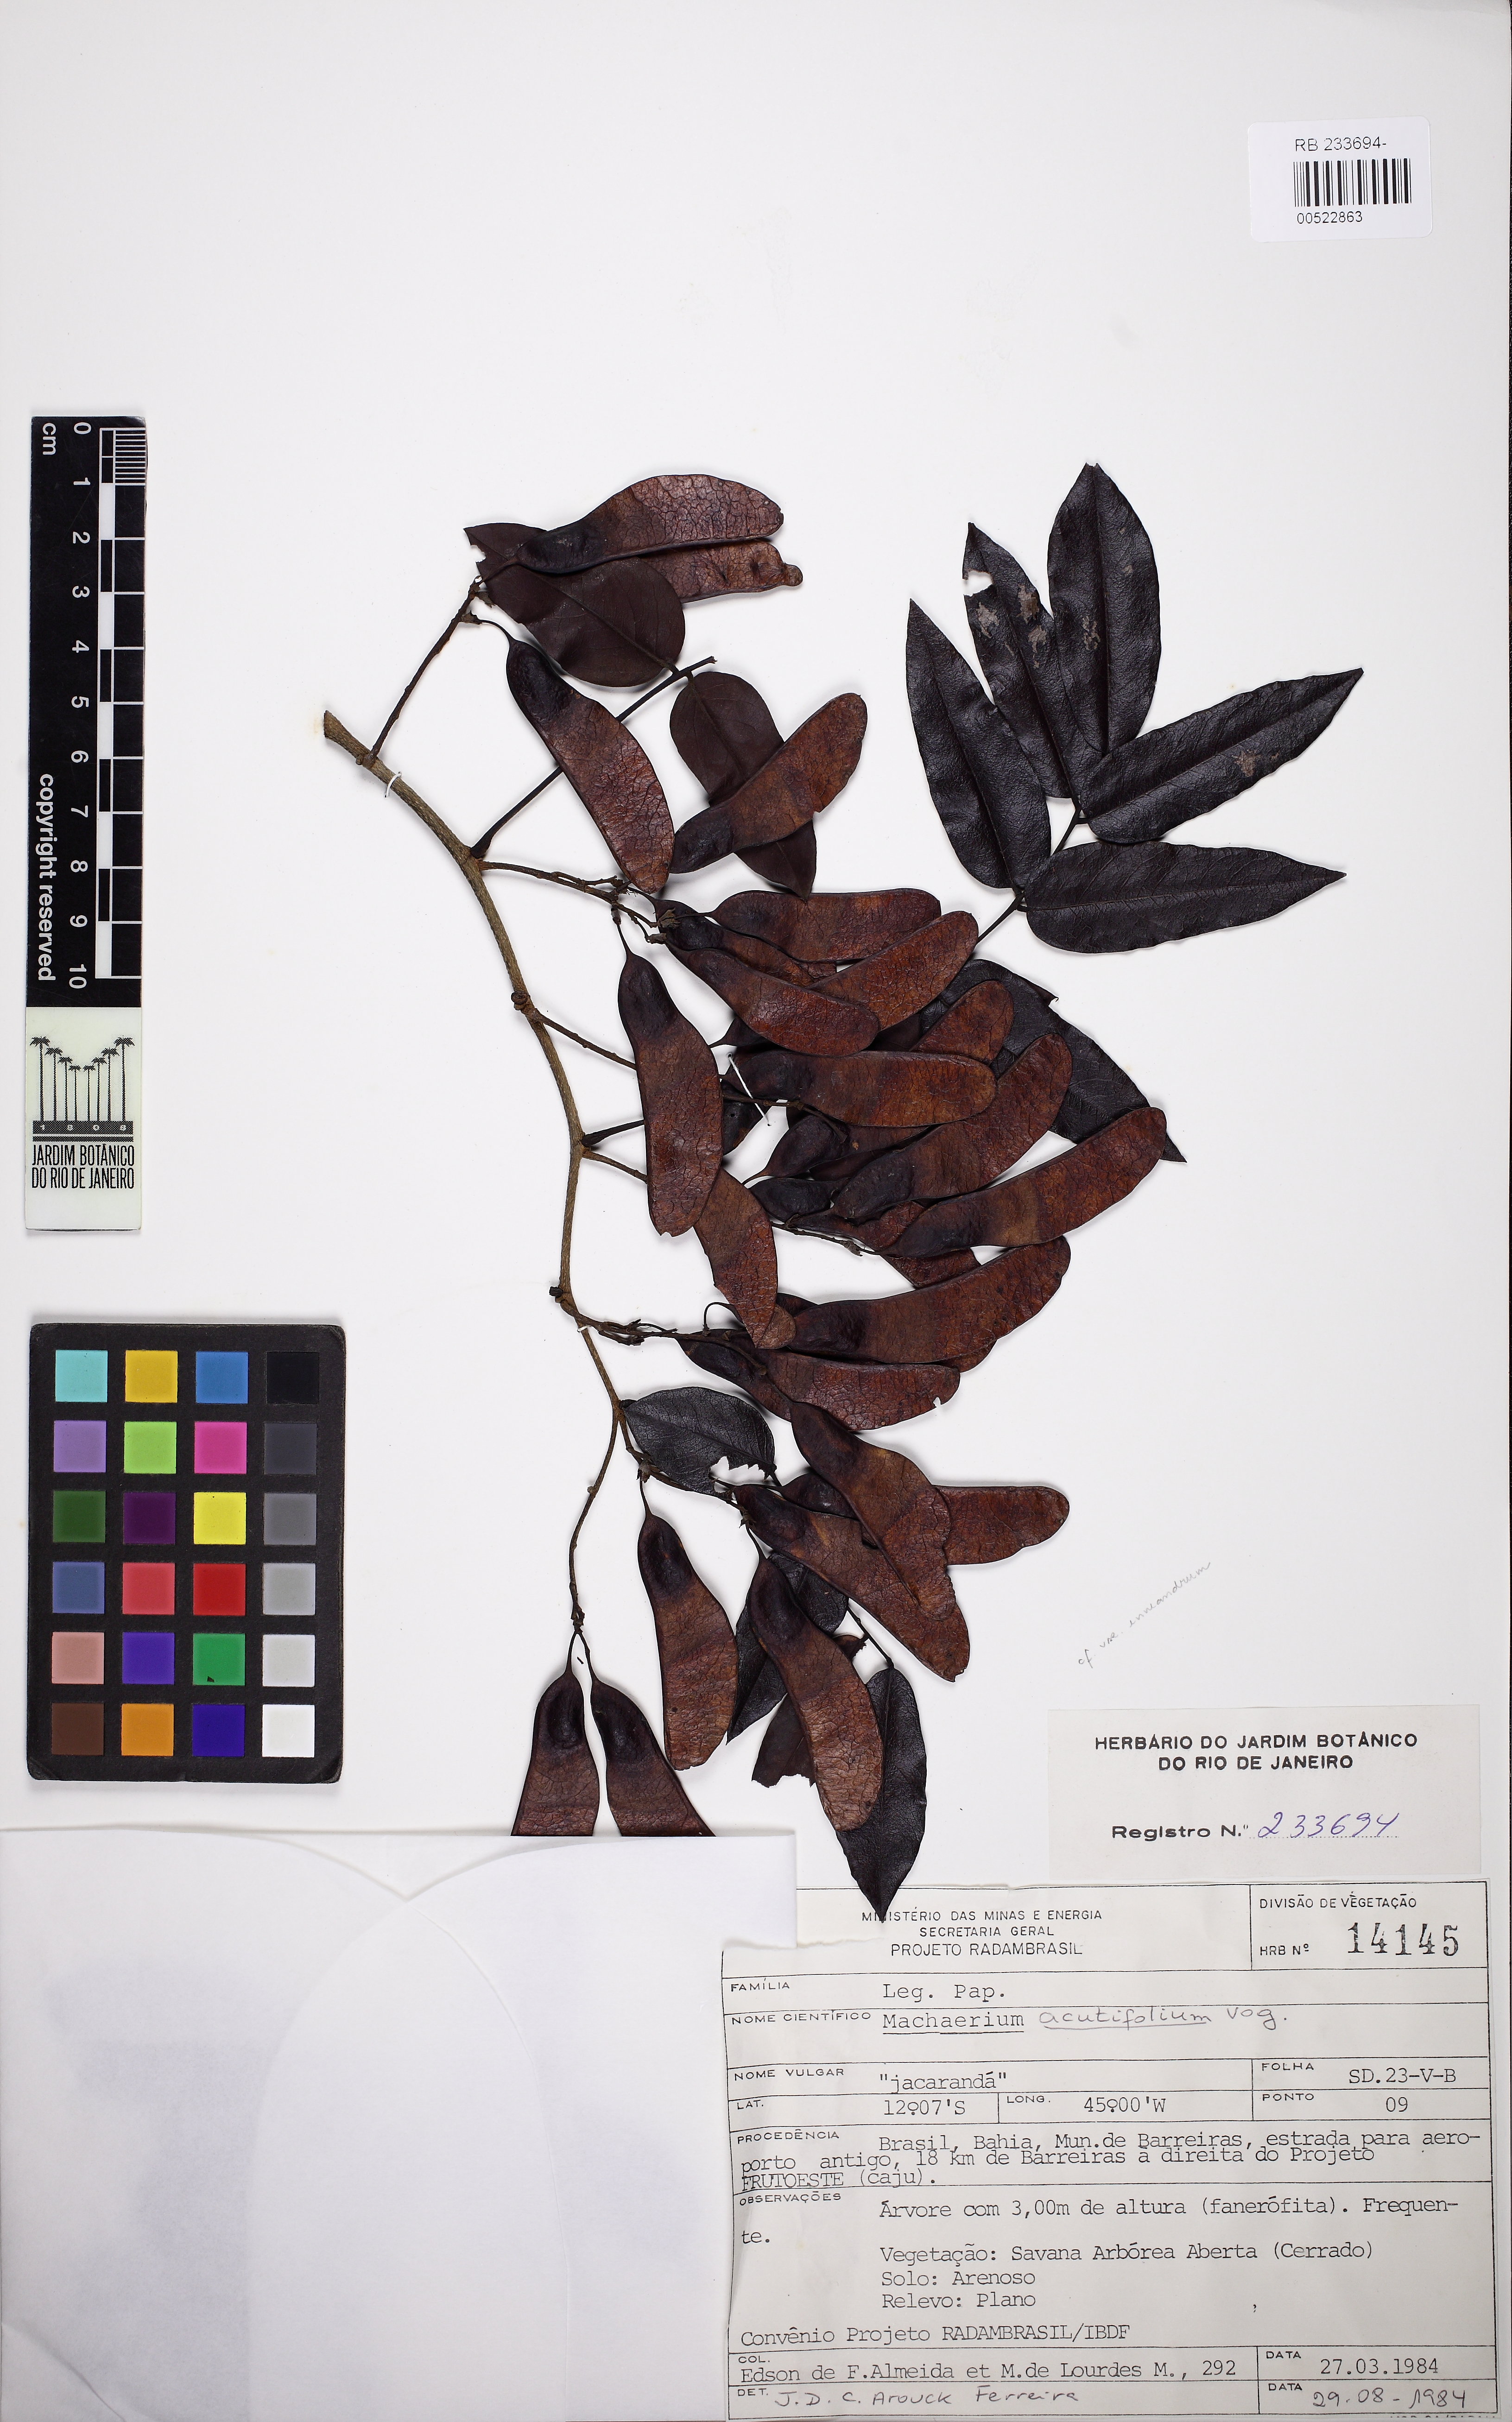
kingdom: Plantae
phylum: Tracheophyta
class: Magnoliopsida
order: Fabales
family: Fabaceae
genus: Machaerium
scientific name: Machaerium acutifolium
